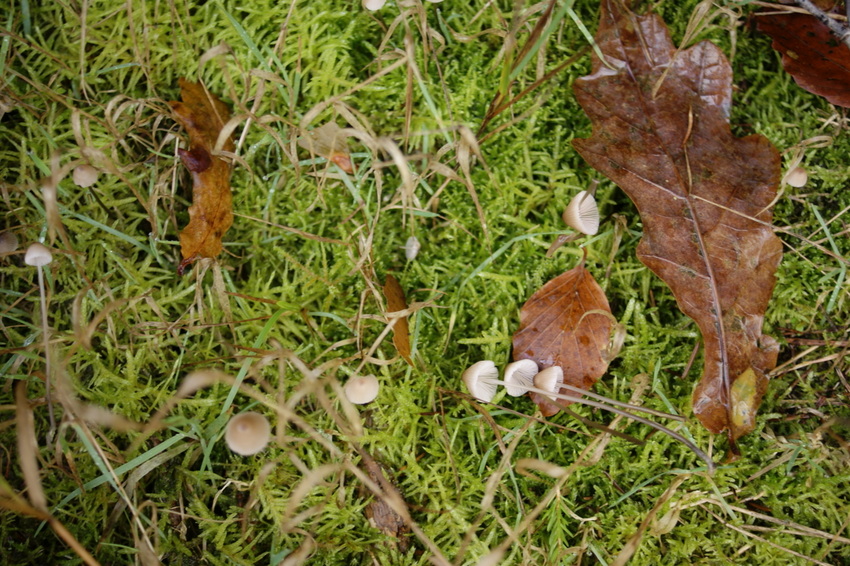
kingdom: Fungi
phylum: Basidiomycota
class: Agaricomycetes
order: Agaricales
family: Mycenaceae
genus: Mycena
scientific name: Mycena filopes
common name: jod-huesvamp
